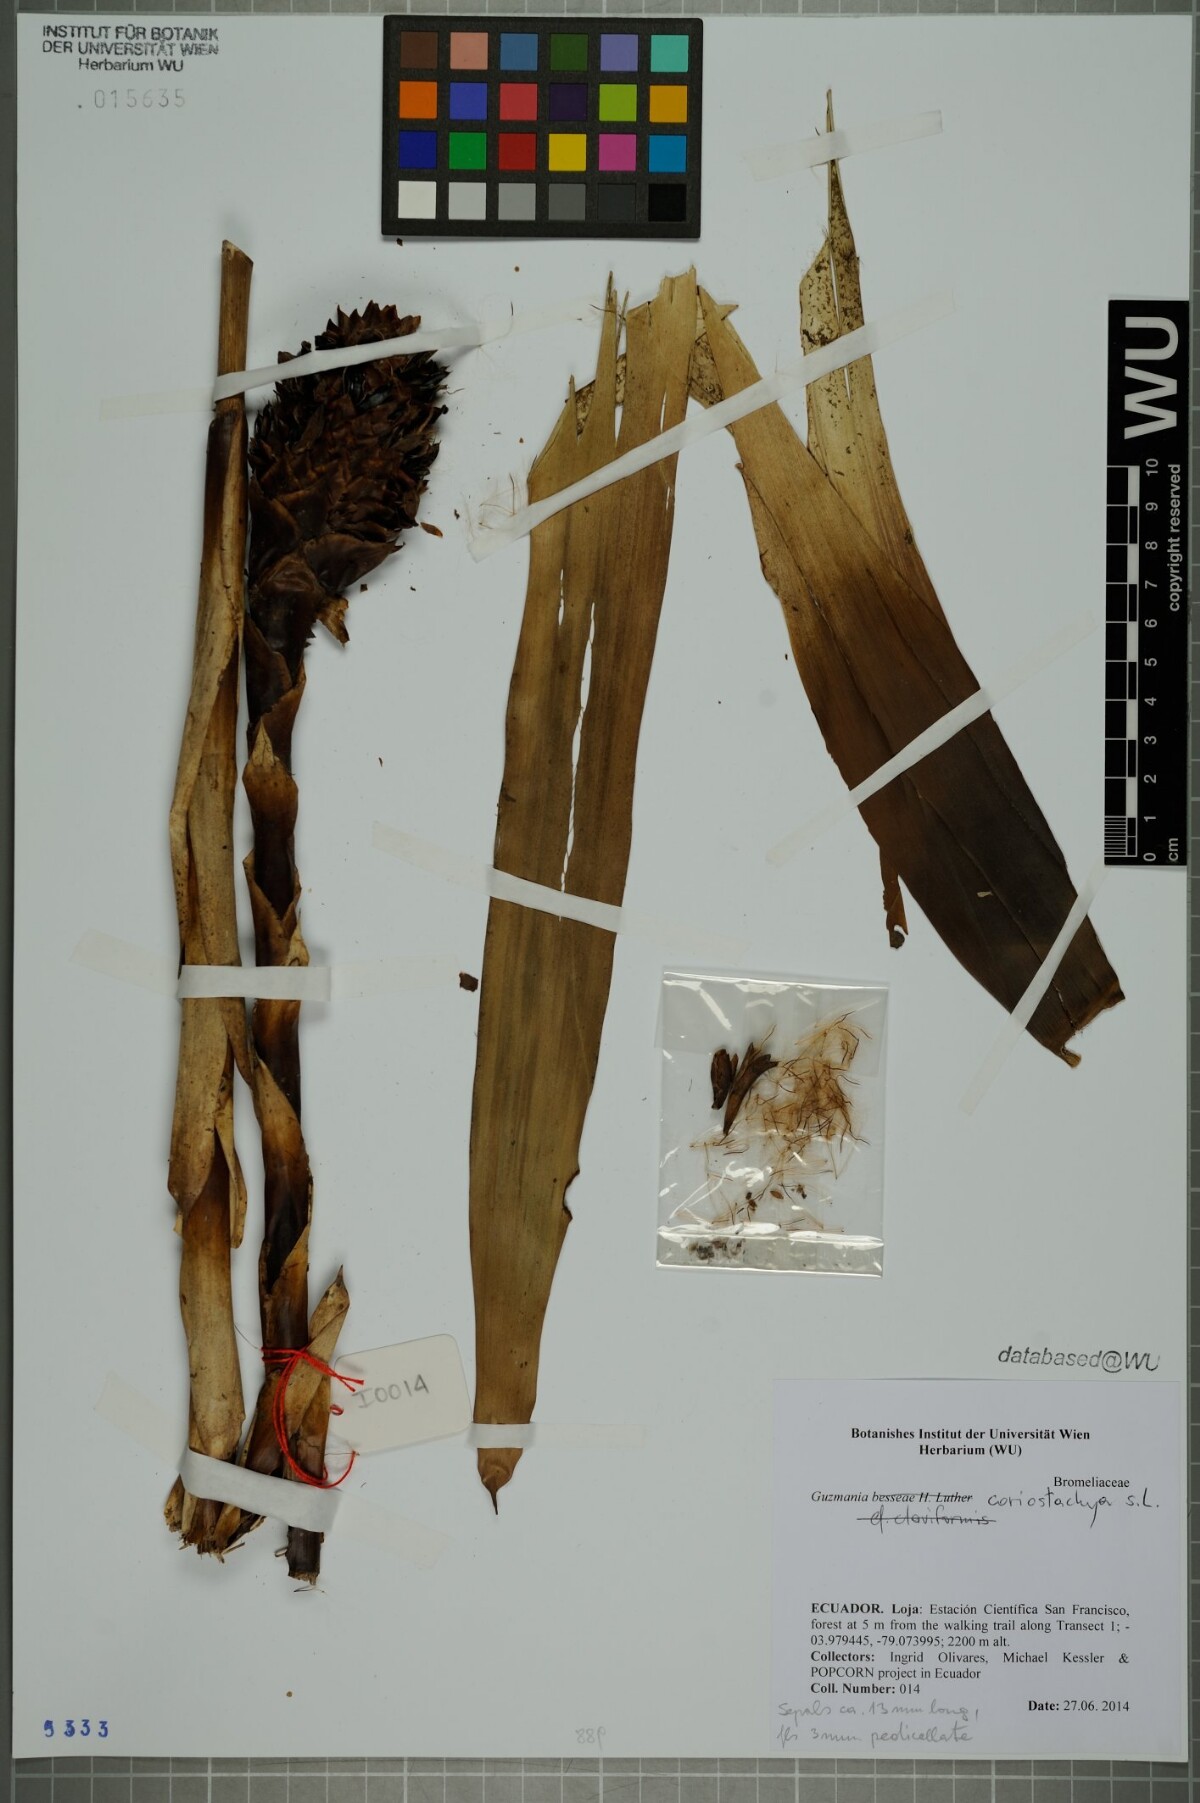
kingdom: Plantae
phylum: Tracheophyta
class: Liliopsida
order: Poales
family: Bromeliaceae
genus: Guzmania
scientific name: Guzmania coriostachya
